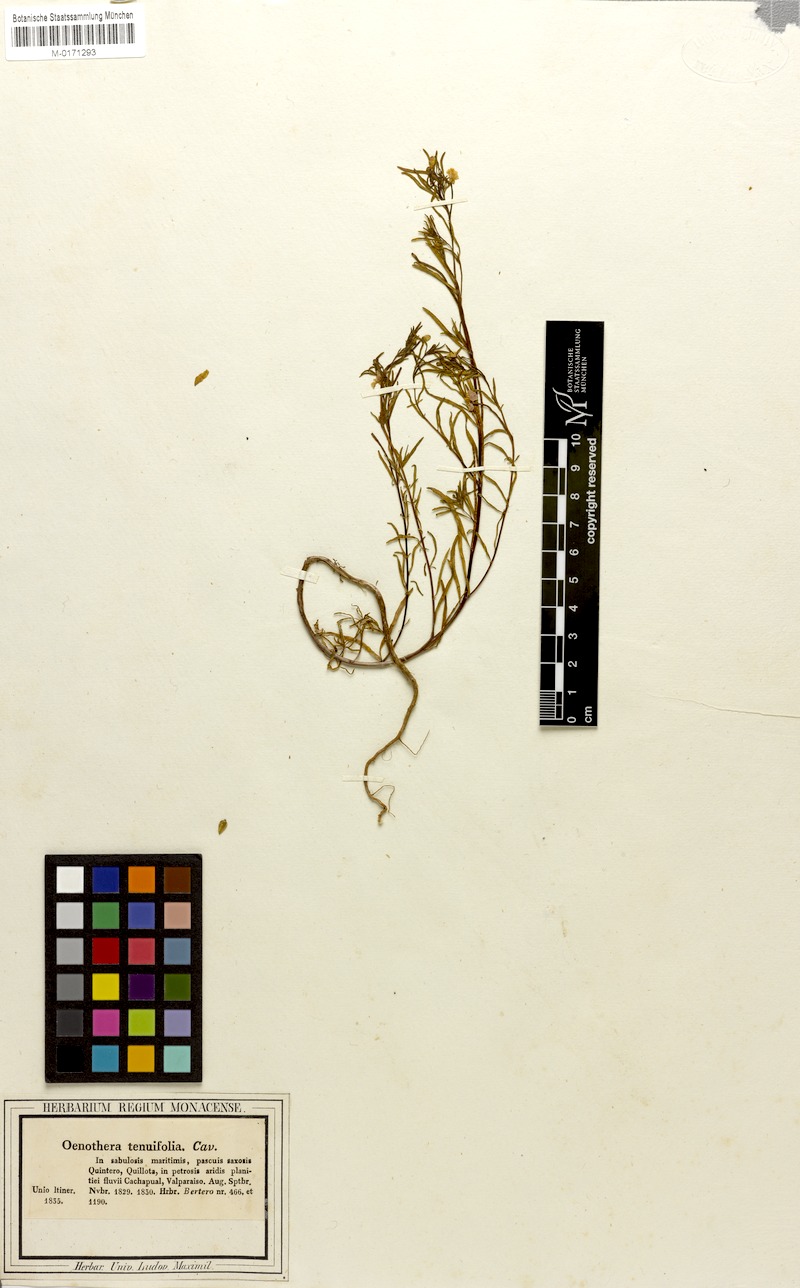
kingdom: Plantae
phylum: Tracheophyta
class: Magnoliopsida
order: Myrtales
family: Onagraceae
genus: Clarkia
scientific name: Clarkia tenella
